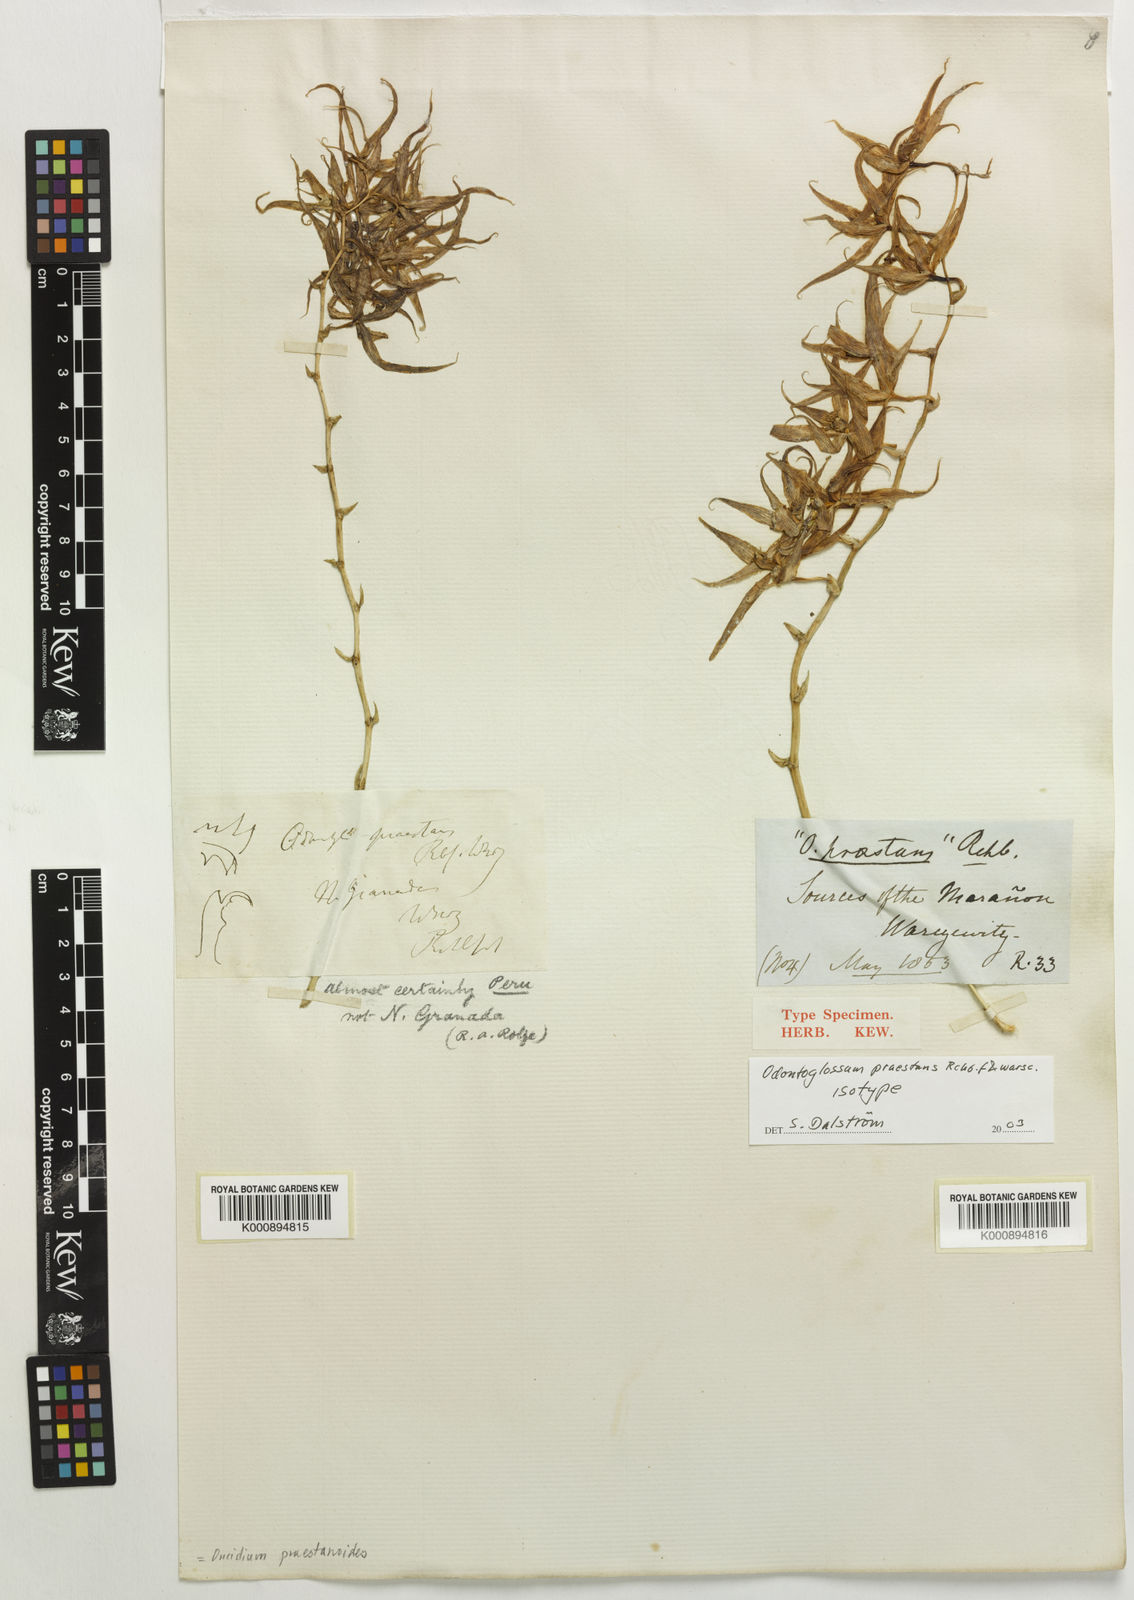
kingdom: Plantae
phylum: Tracheophyta
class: Liliopsida
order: Asparagales
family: Orchidaceae
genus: Oncidium
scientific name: Oncidium praestanoides
